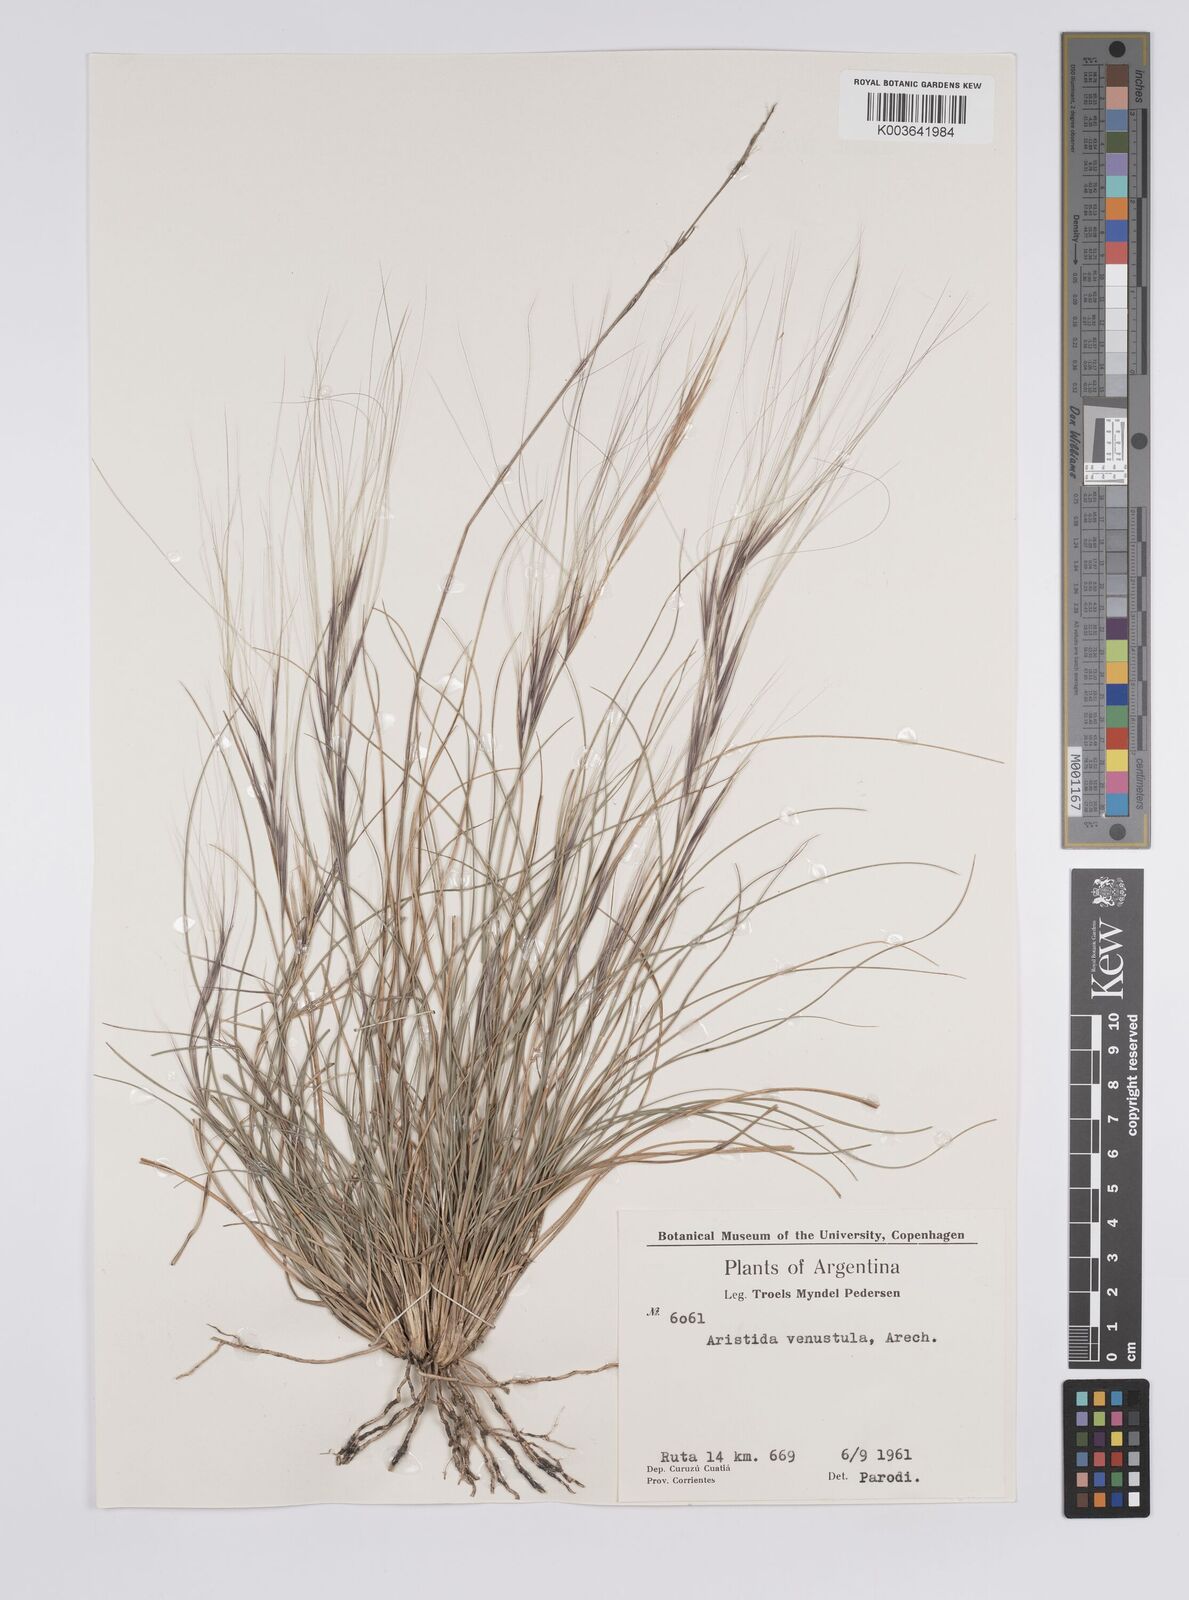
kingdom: Plantae
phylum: Tracheophyta
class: Liliopsida
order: Poales
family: Poaceae
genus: Aristida
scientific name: Aristida venustula
